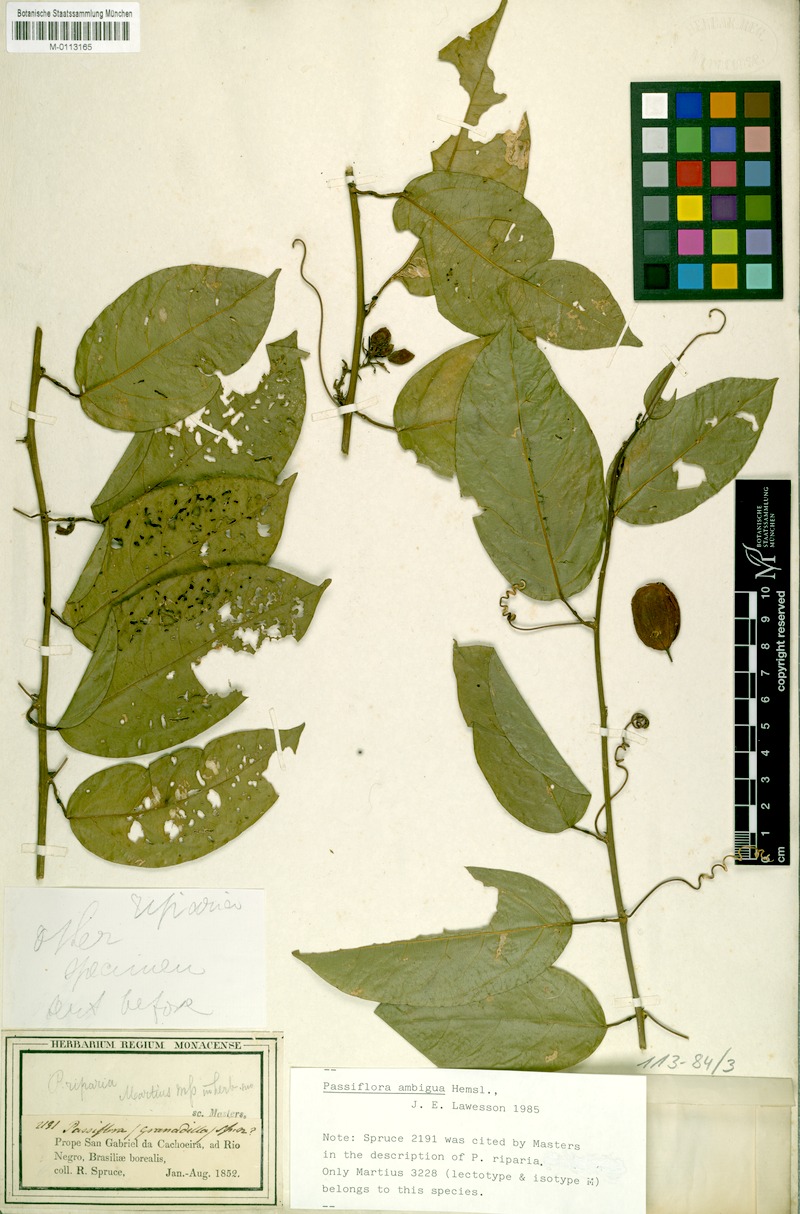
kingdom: Plantae
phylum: Tracheophyta
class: Magnoliopsida
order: Malpighiales
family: Passifloraceae
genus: Passiflora
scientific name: Passiflora ambigua
